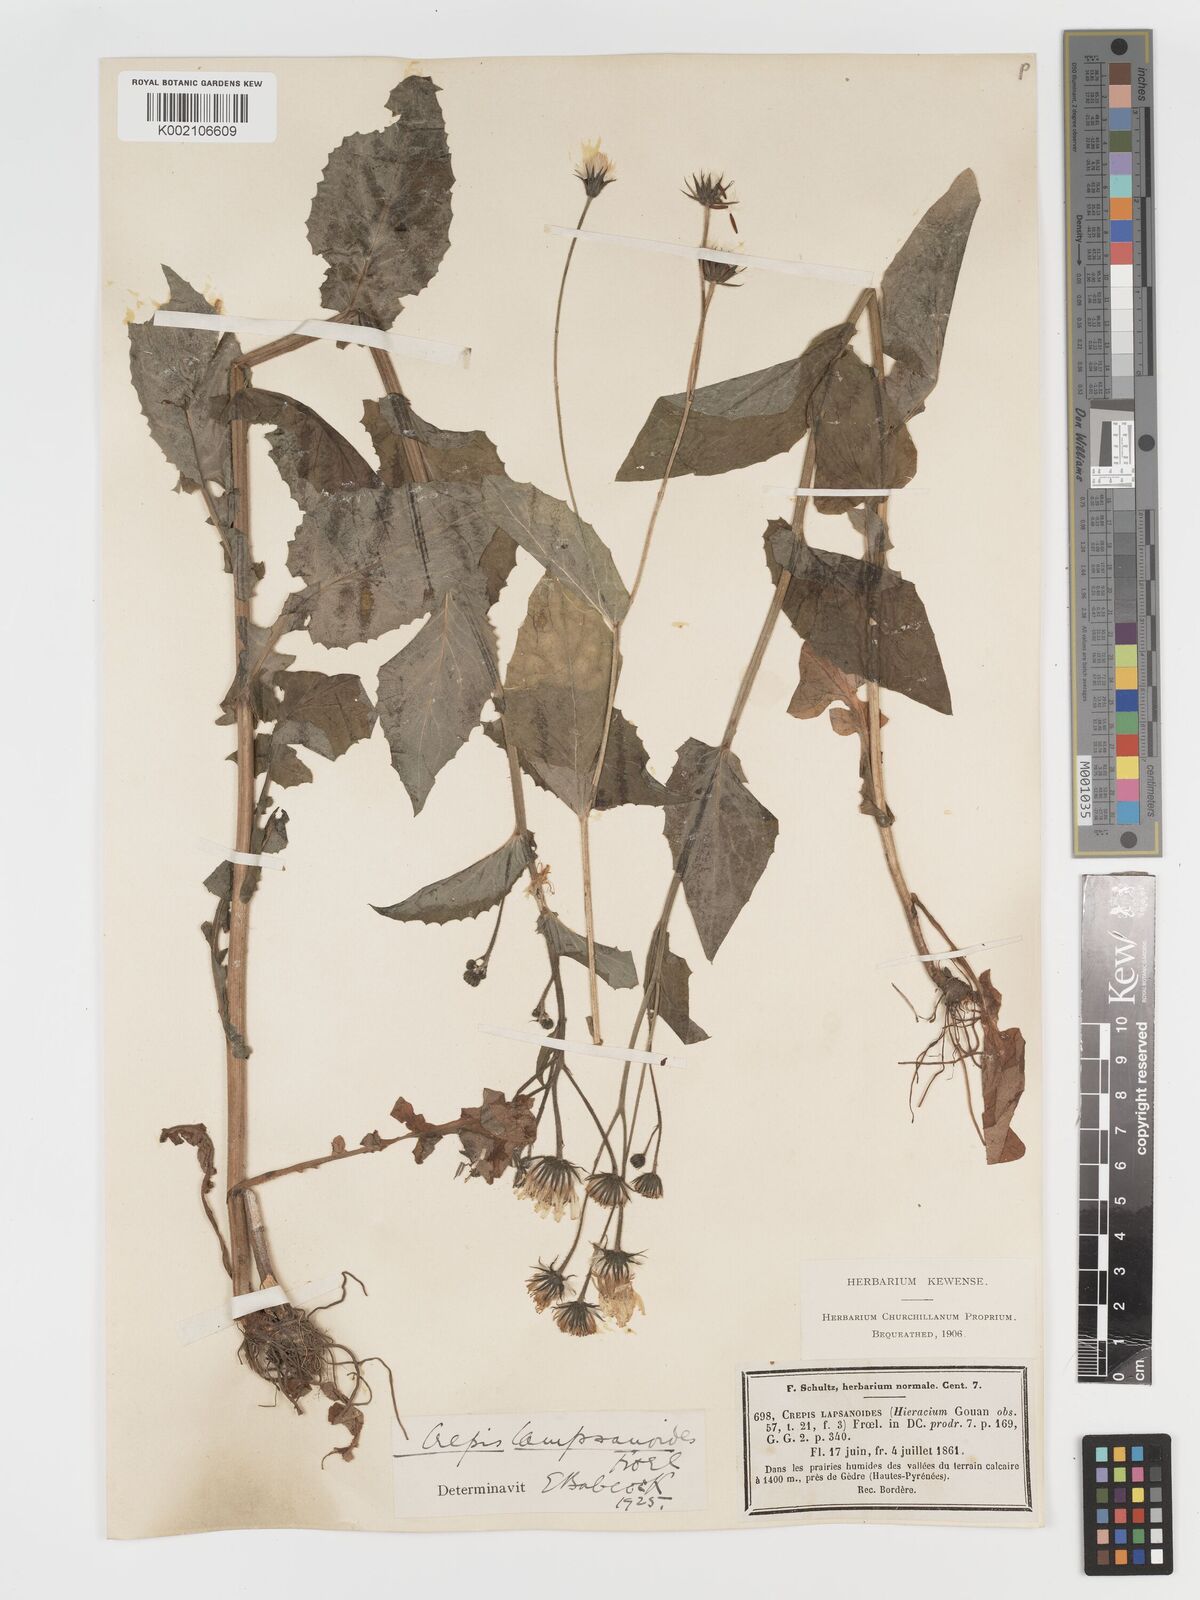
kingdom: Plantae
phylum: Tracheophyta
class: Magnoliopsida
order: Asterales
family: Asteraceae
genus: Crepis
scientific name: Crepis lampsanoides
